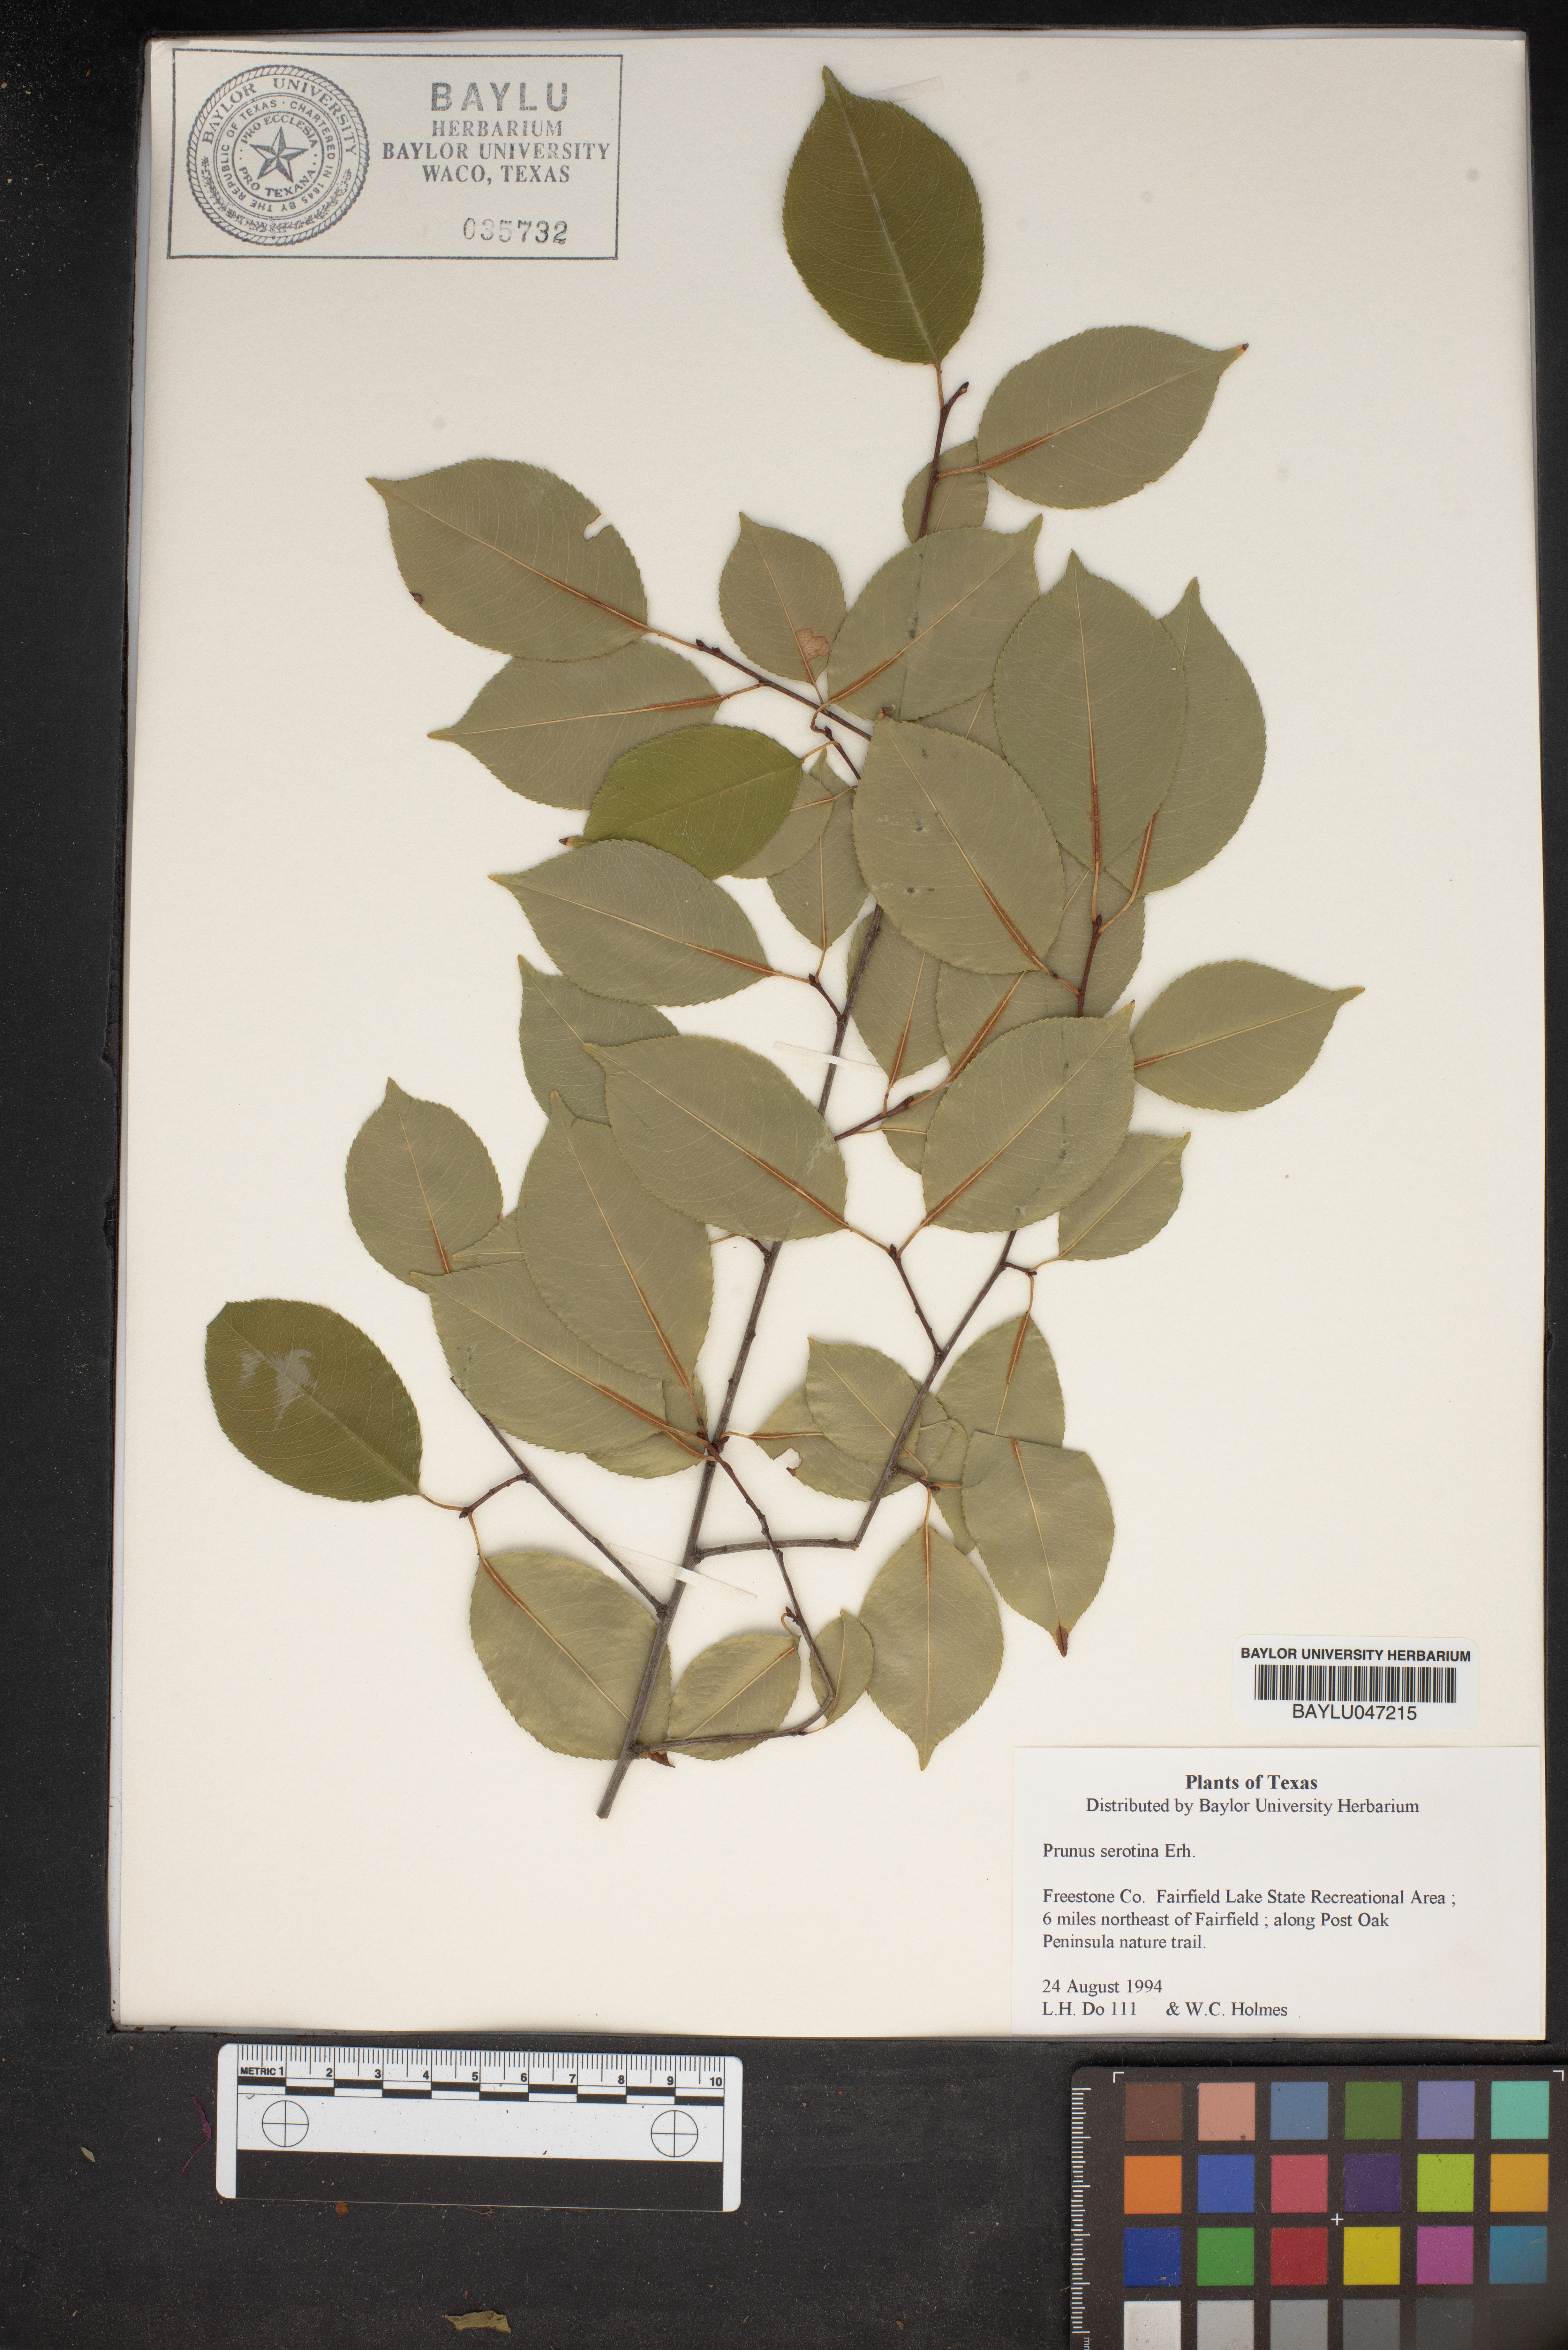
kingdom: Plantae
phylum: Tracheophyta
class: Magnoliopsida
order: Rosales
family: Rosaceae
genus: Prunus
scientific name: Prunus serotina
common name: Black cherry
